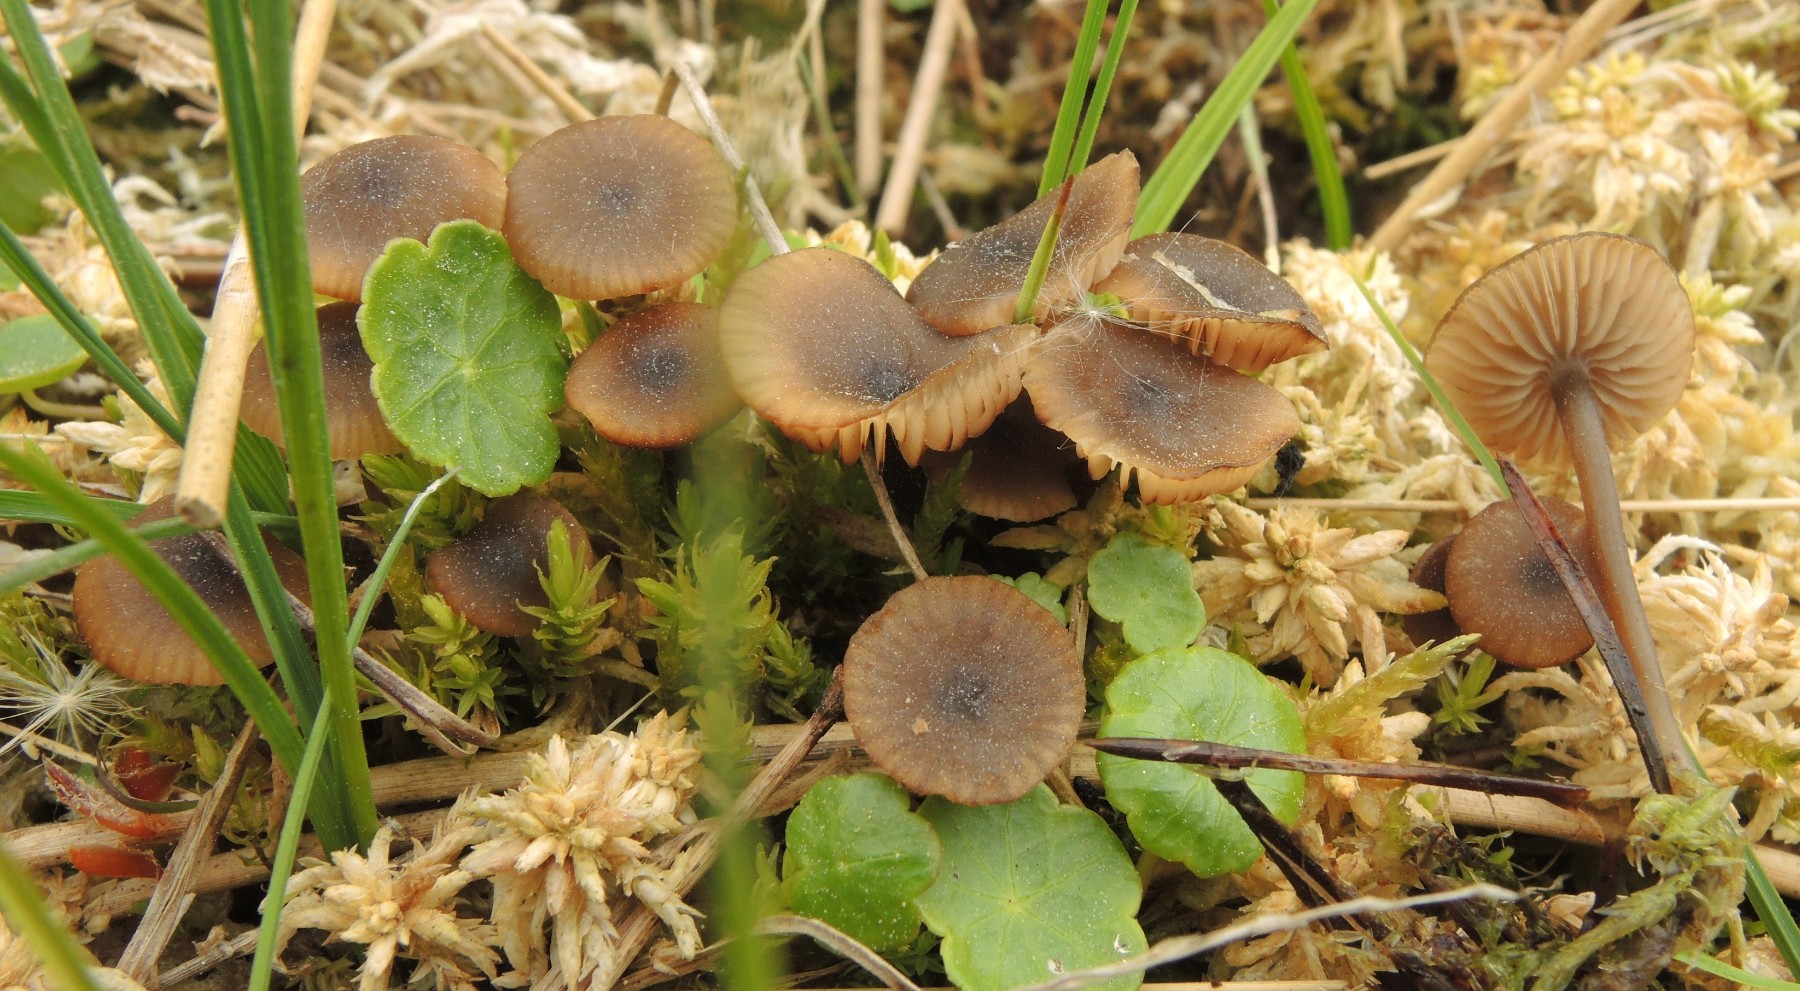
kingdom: Fungi
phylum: Basidiomycota
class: Agaricomycetes
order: Agaricales
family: Lyophyllaceae
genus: Sphagnurus
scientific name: Sphagnurus paluster
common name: tørvemos-gråblad
